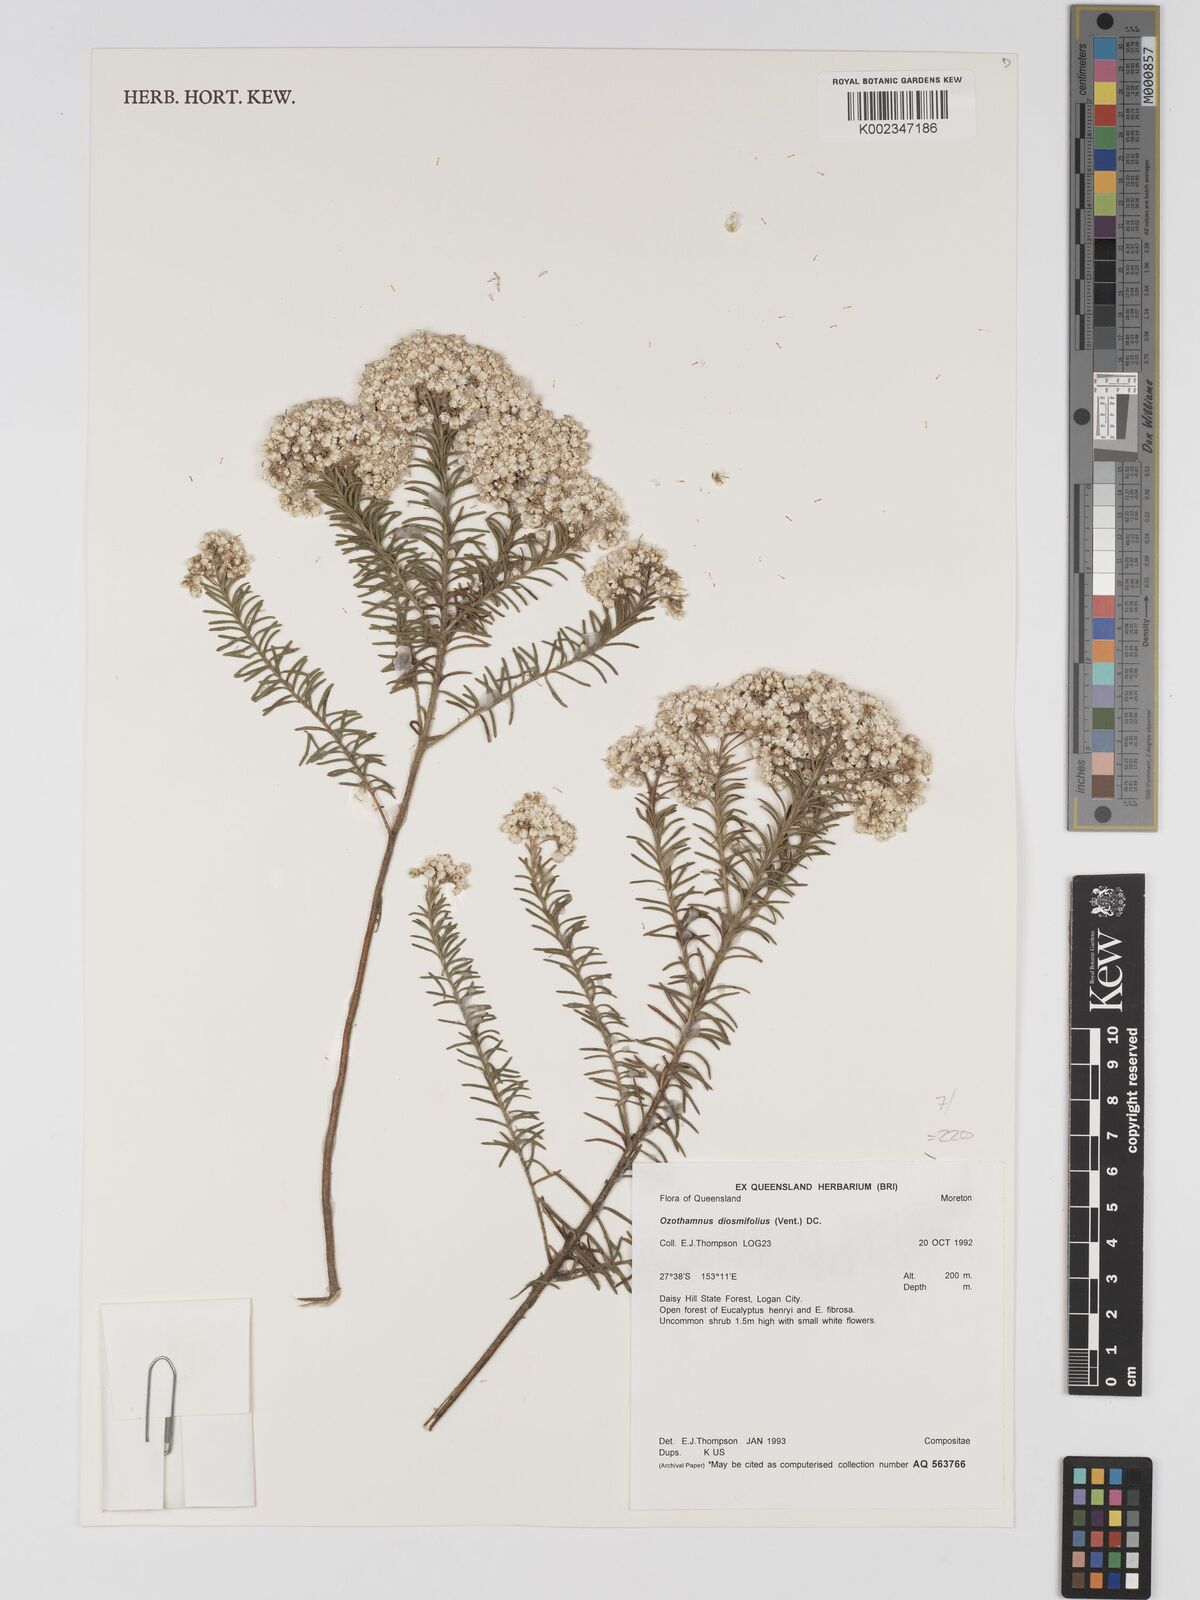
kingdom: Plantae
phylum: Tracheophyta
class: Magnoliopsida
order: Asterales
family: Asteraceae
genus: Ozothamnus
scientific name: Ozothamnus diosmifolius
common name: White-dogwood
